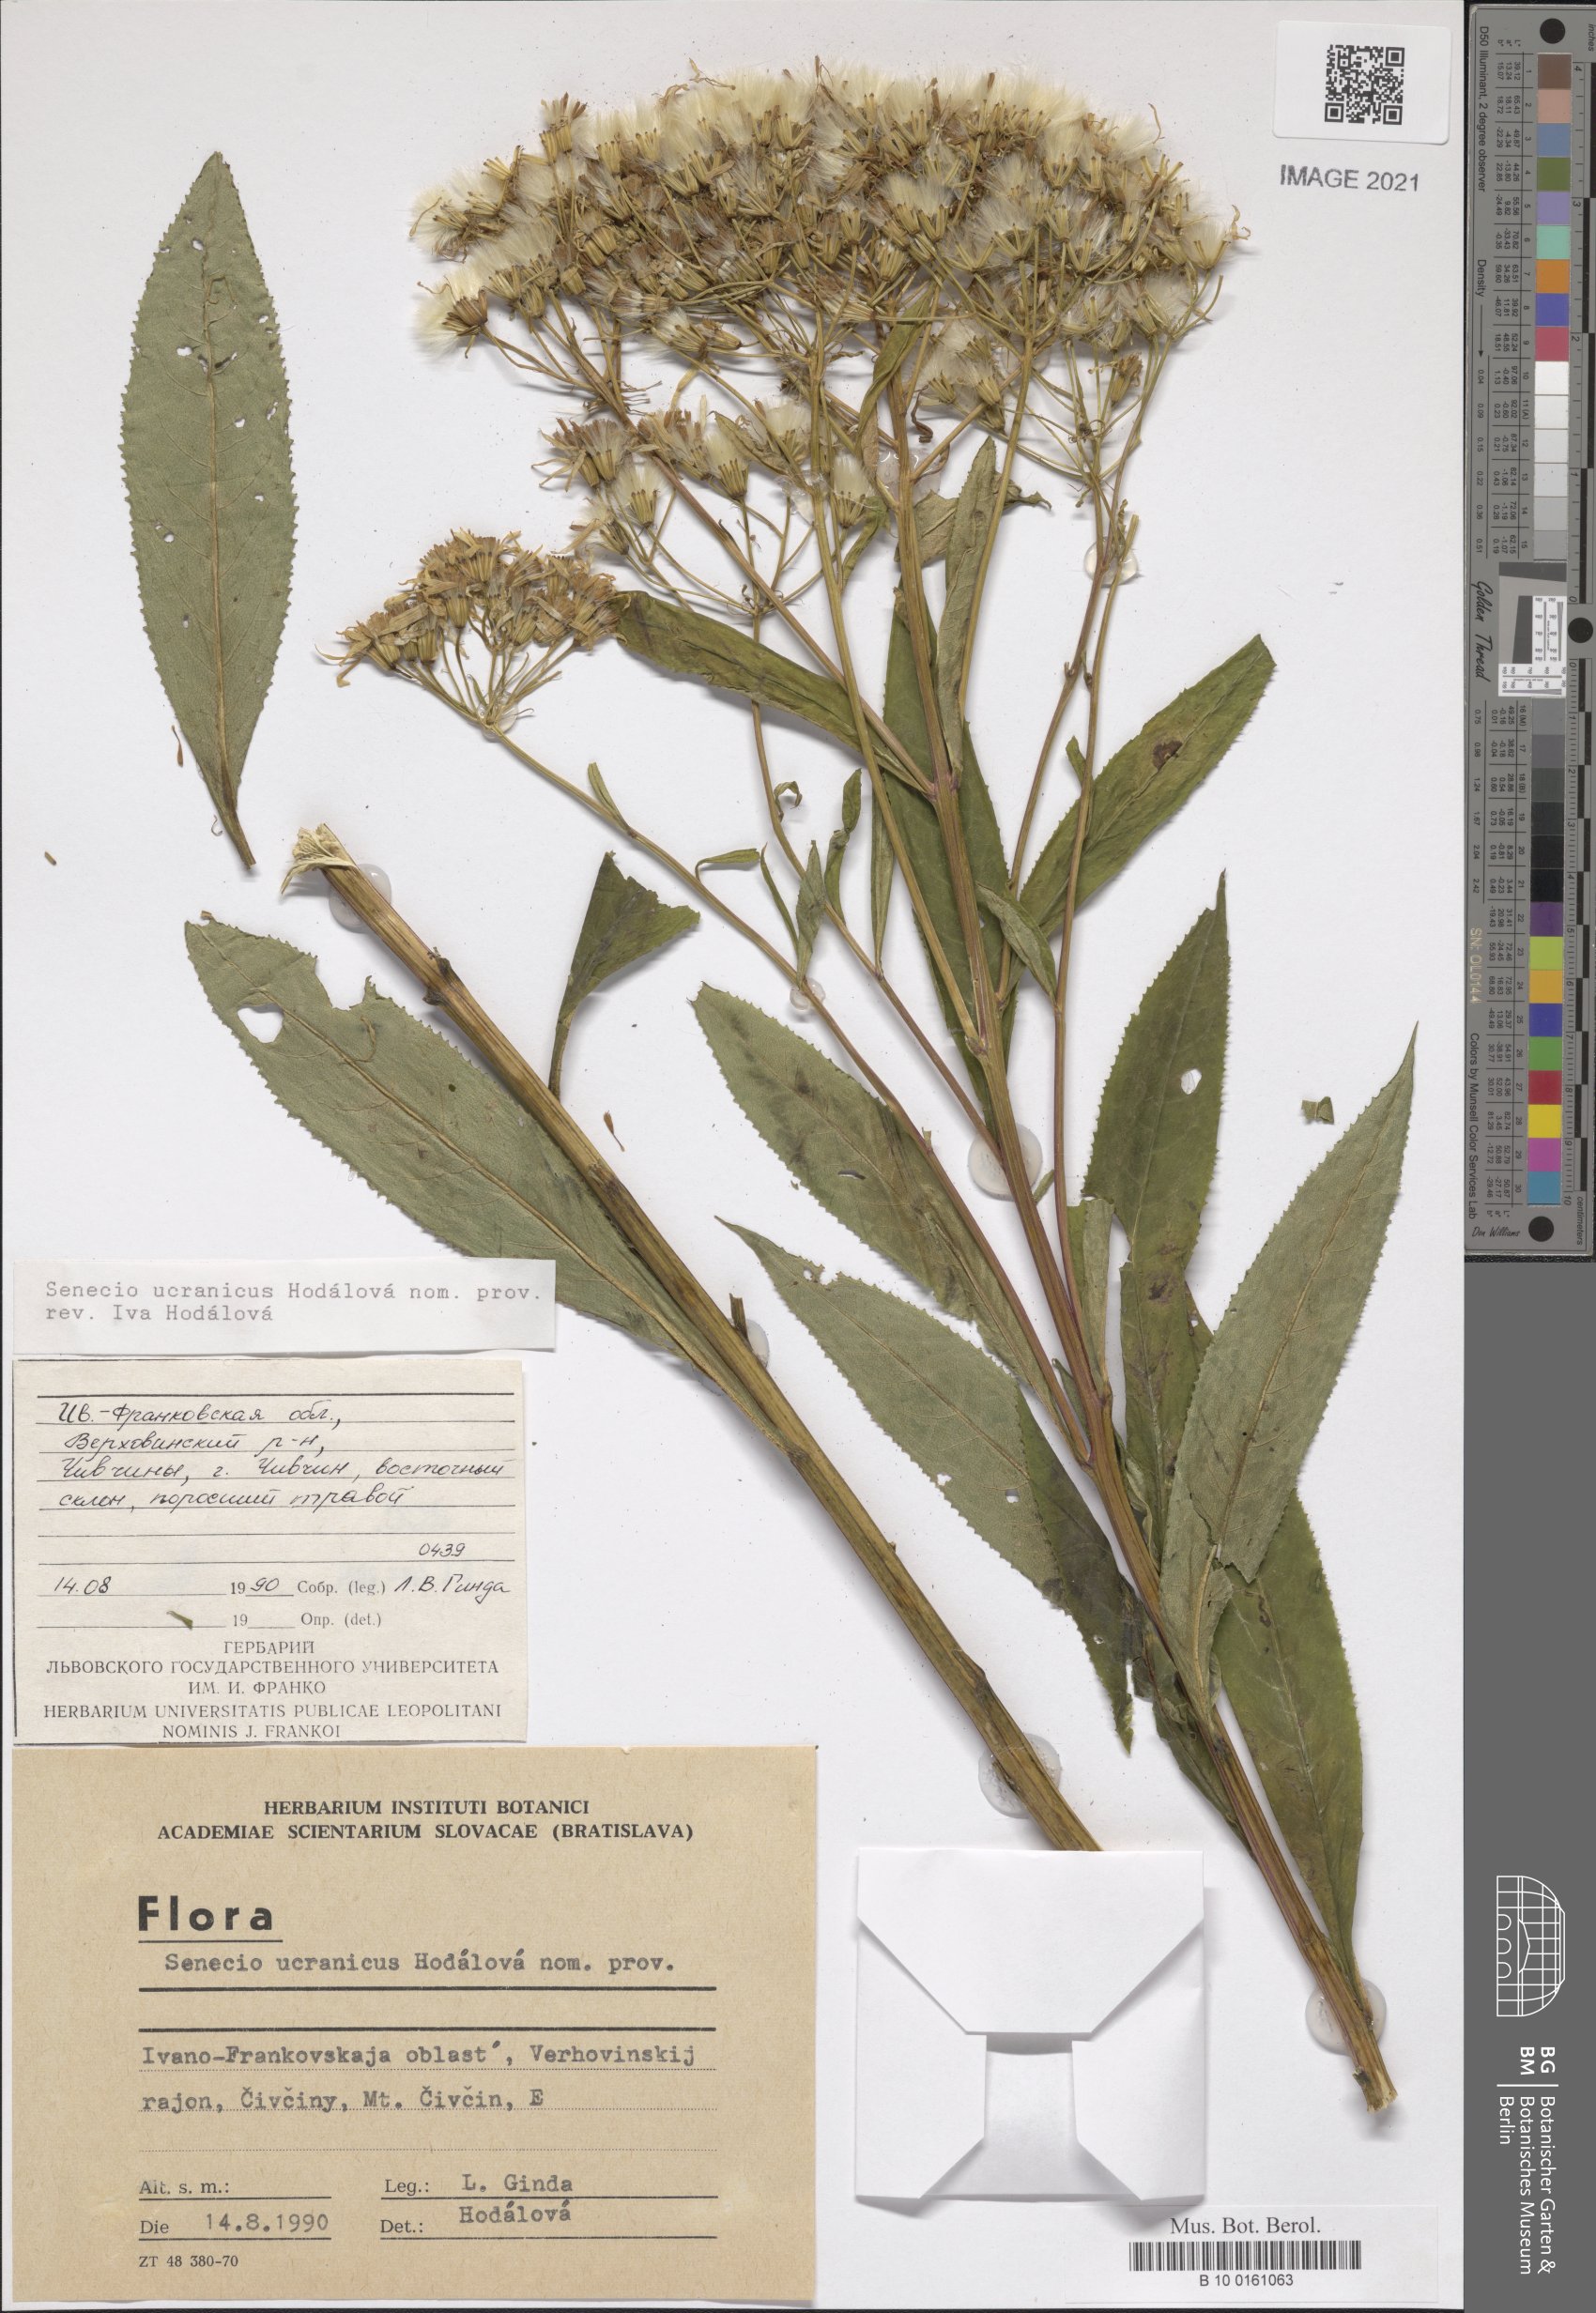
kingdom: Plantae
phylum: Tracheophyta
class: Magnoliopsida
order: Asterales
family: Asteraceae
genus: Senecio
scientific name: Senecio hercynicus
